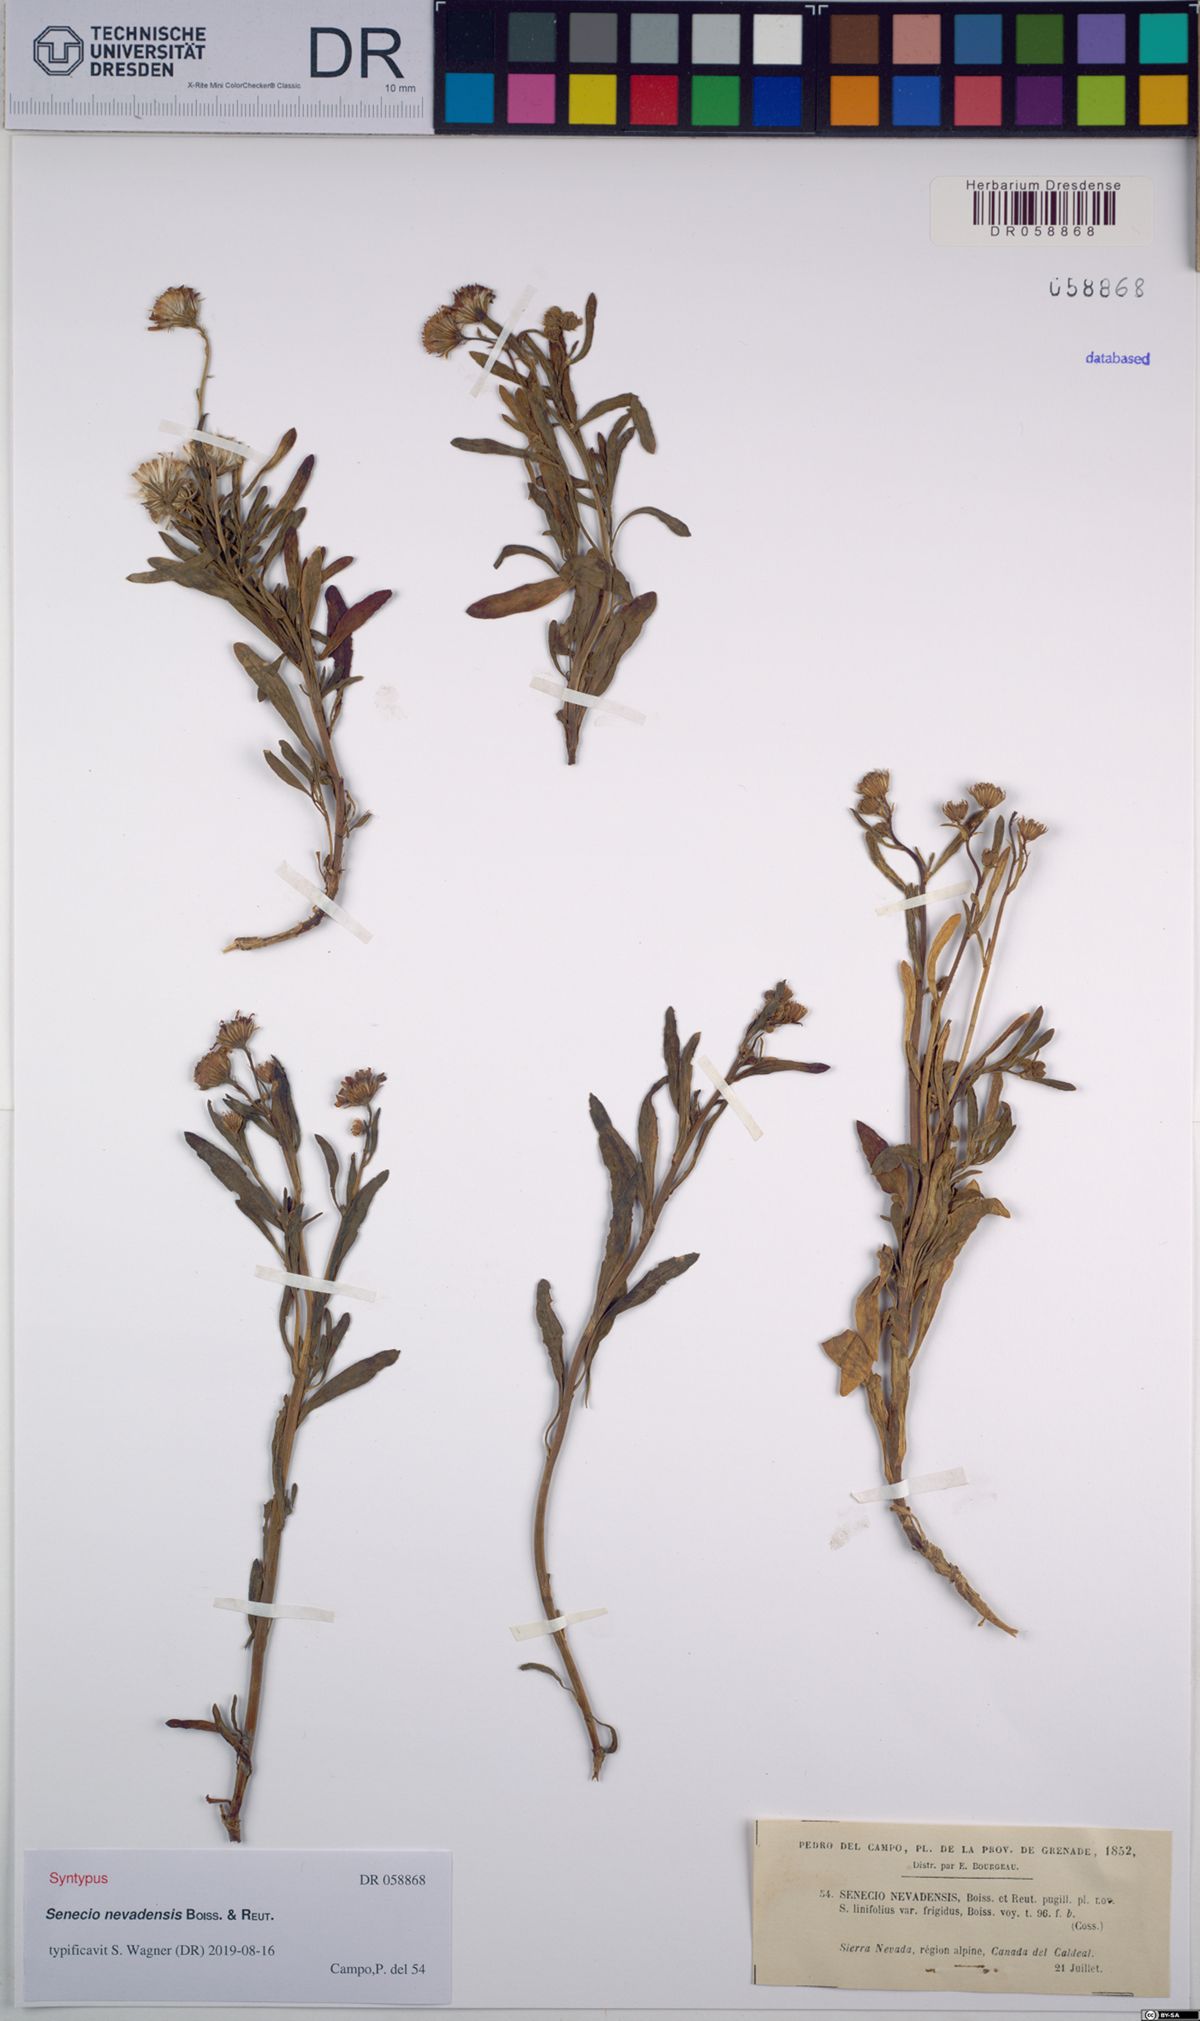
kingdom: Plantae
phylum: Tracheophyta
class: Magnoliopsida
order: Asterales
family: Asteraceae
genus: Senecio
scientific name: Senecio nevadensis
